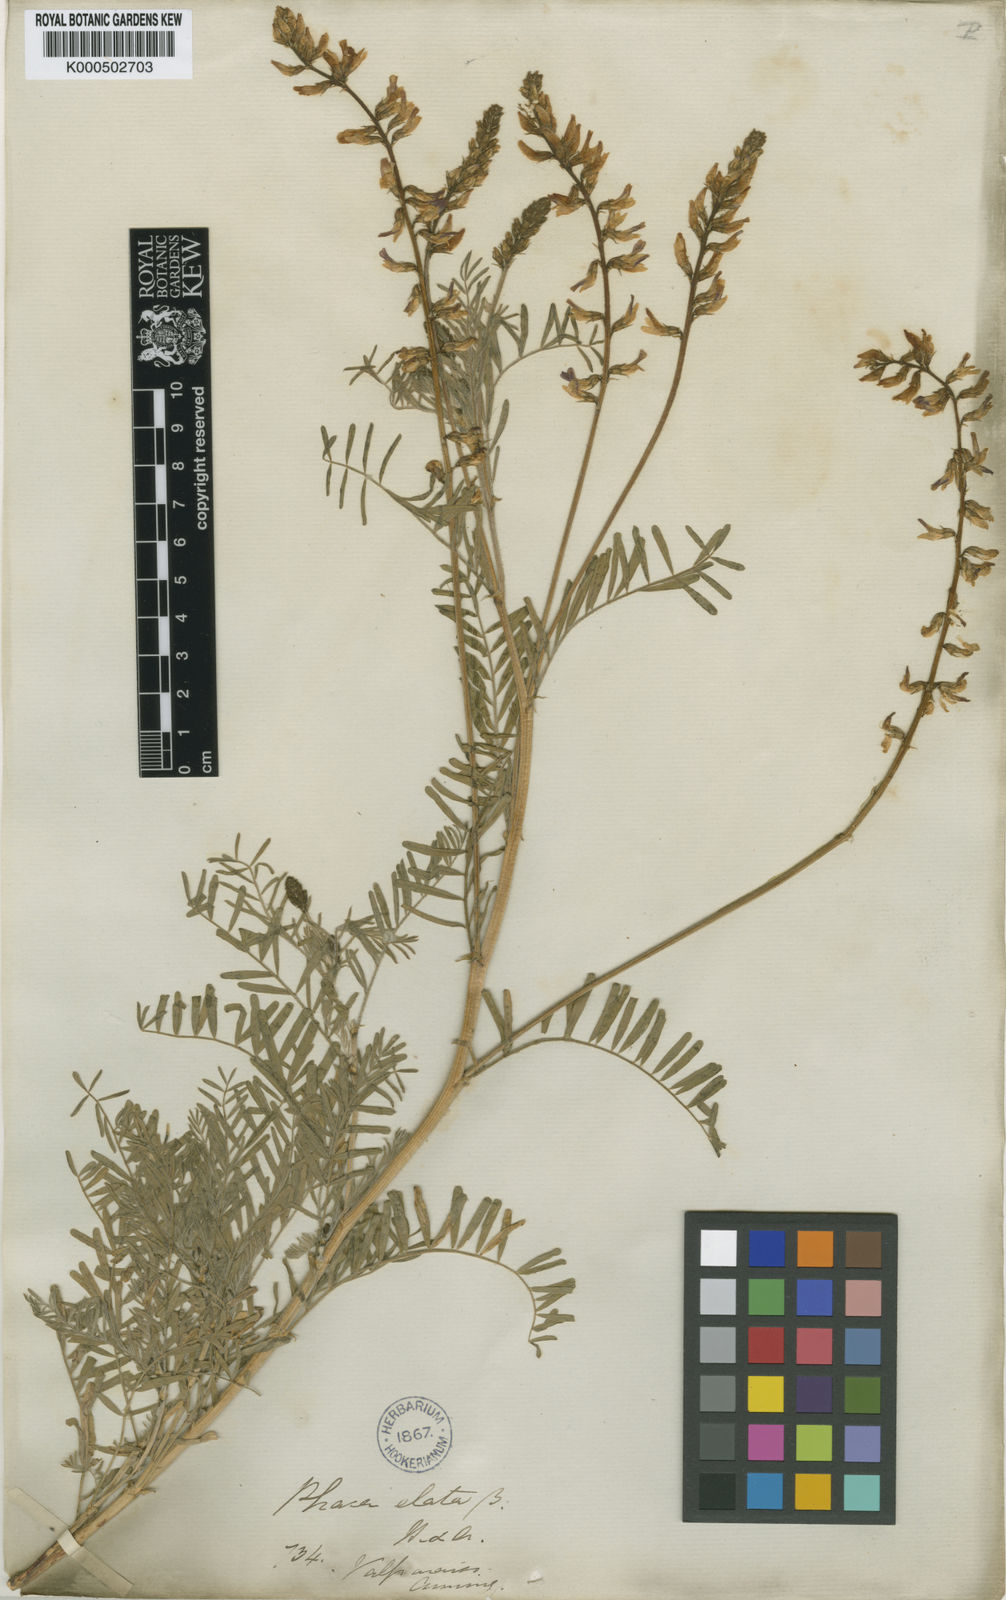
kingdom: Plantae
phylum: Tracheophyta
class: Magnoliopsida
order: Fabales
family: Fabaceae
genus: Astragalus
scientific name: Astragalus berteroanus
